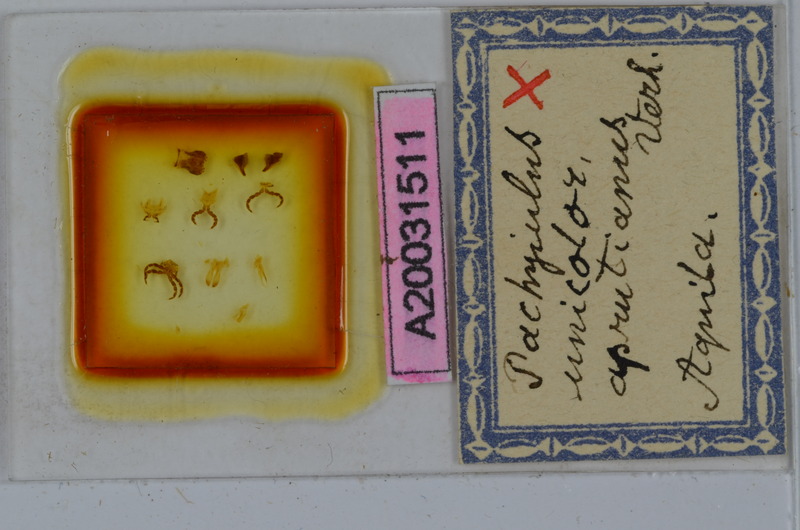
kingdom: Animalia
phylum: Arthropoda
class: Diplopoda
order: Julida
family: Julidae
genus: Pachyiulus
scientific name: Pachyiulus unicolor
